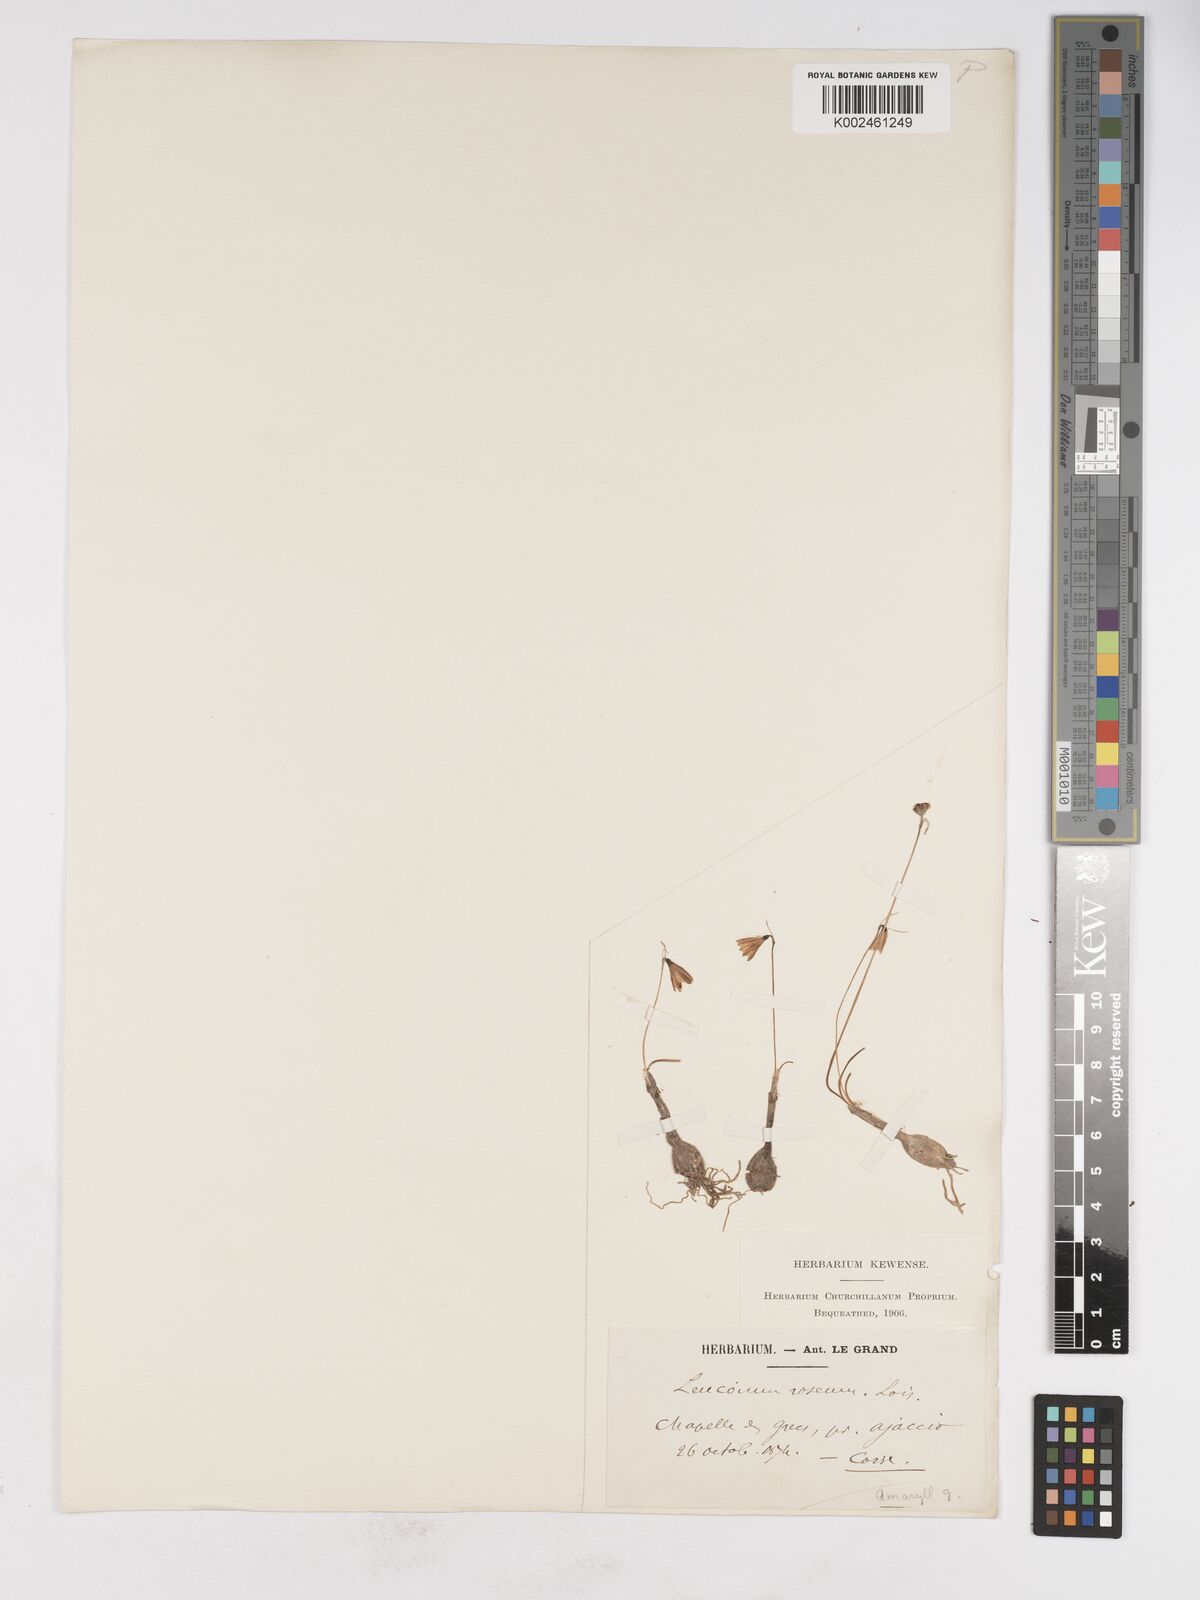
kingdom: Plantae
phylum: Tracheophyta
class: Liliopsida
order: Asparagales
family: Amaryllidaceae
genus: Acis
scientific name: Acis rosea
